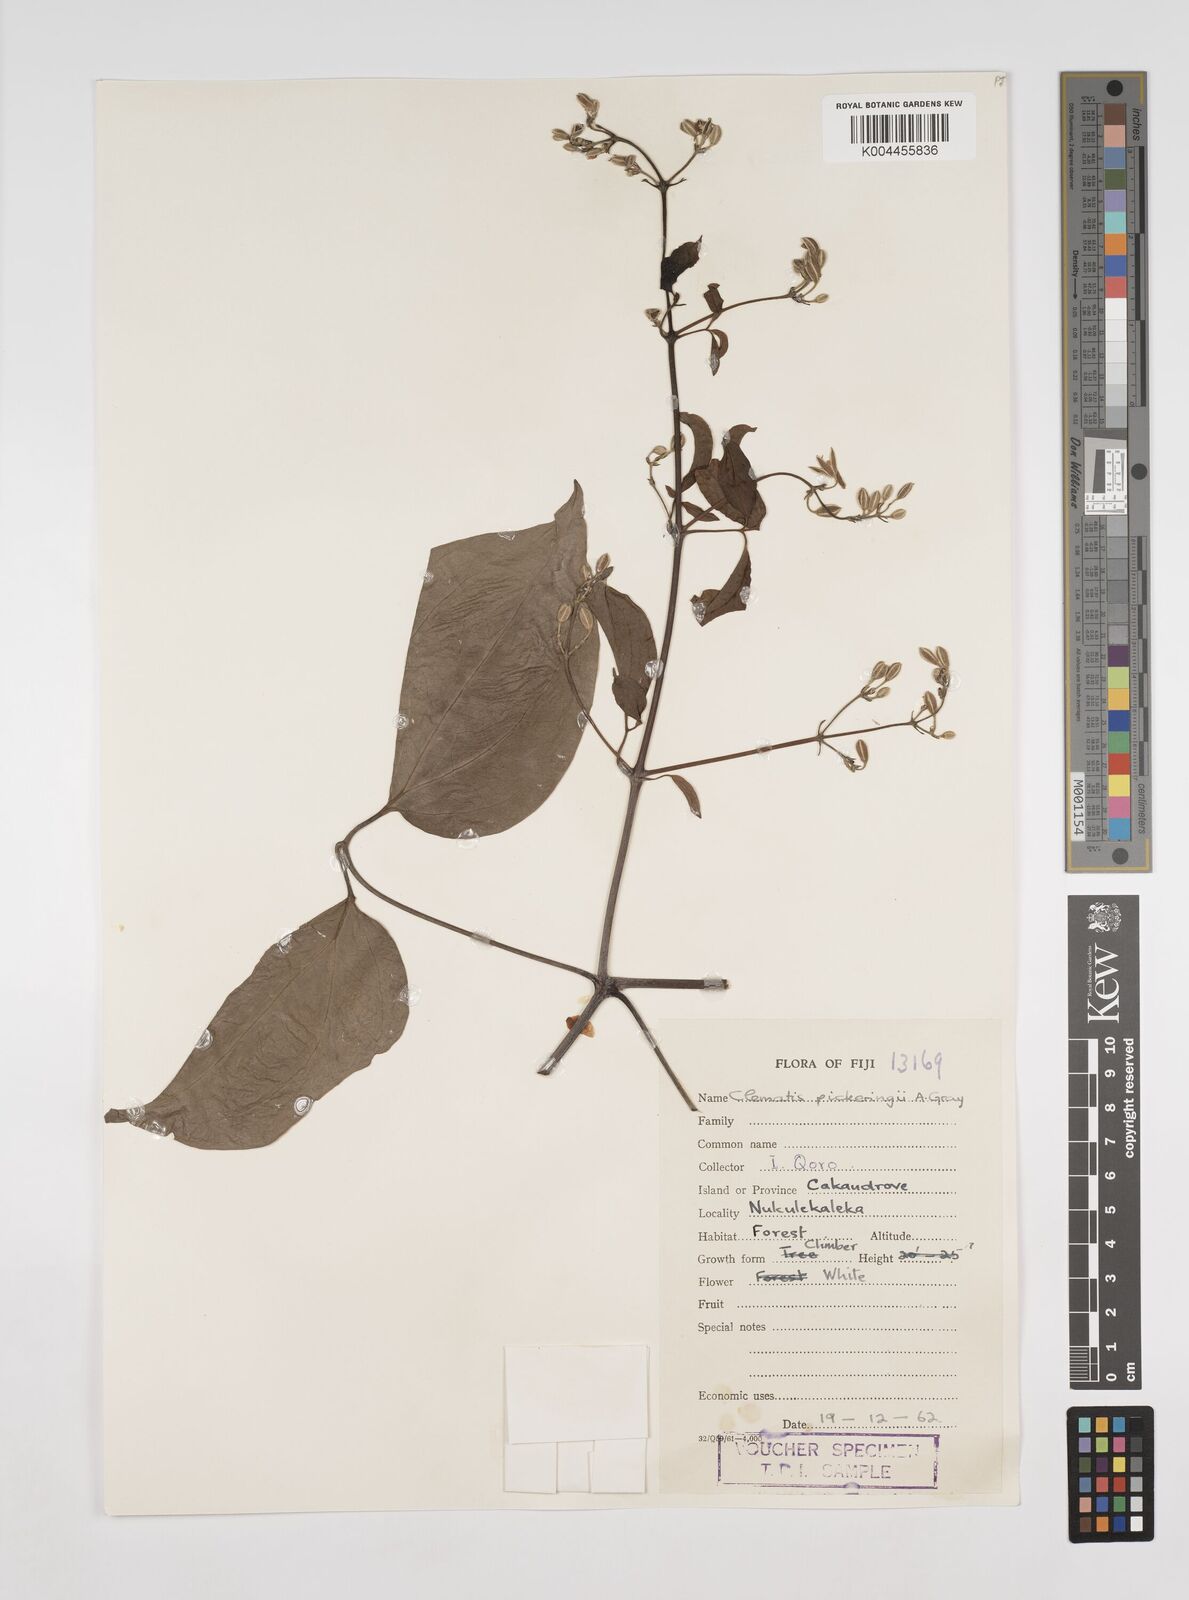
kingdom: Plantae
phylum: Tracheophyta
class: Magnoliopsida
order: Ranunculales
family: Ranunculaceae
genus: Clematis
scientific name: Clematis pickeringii
